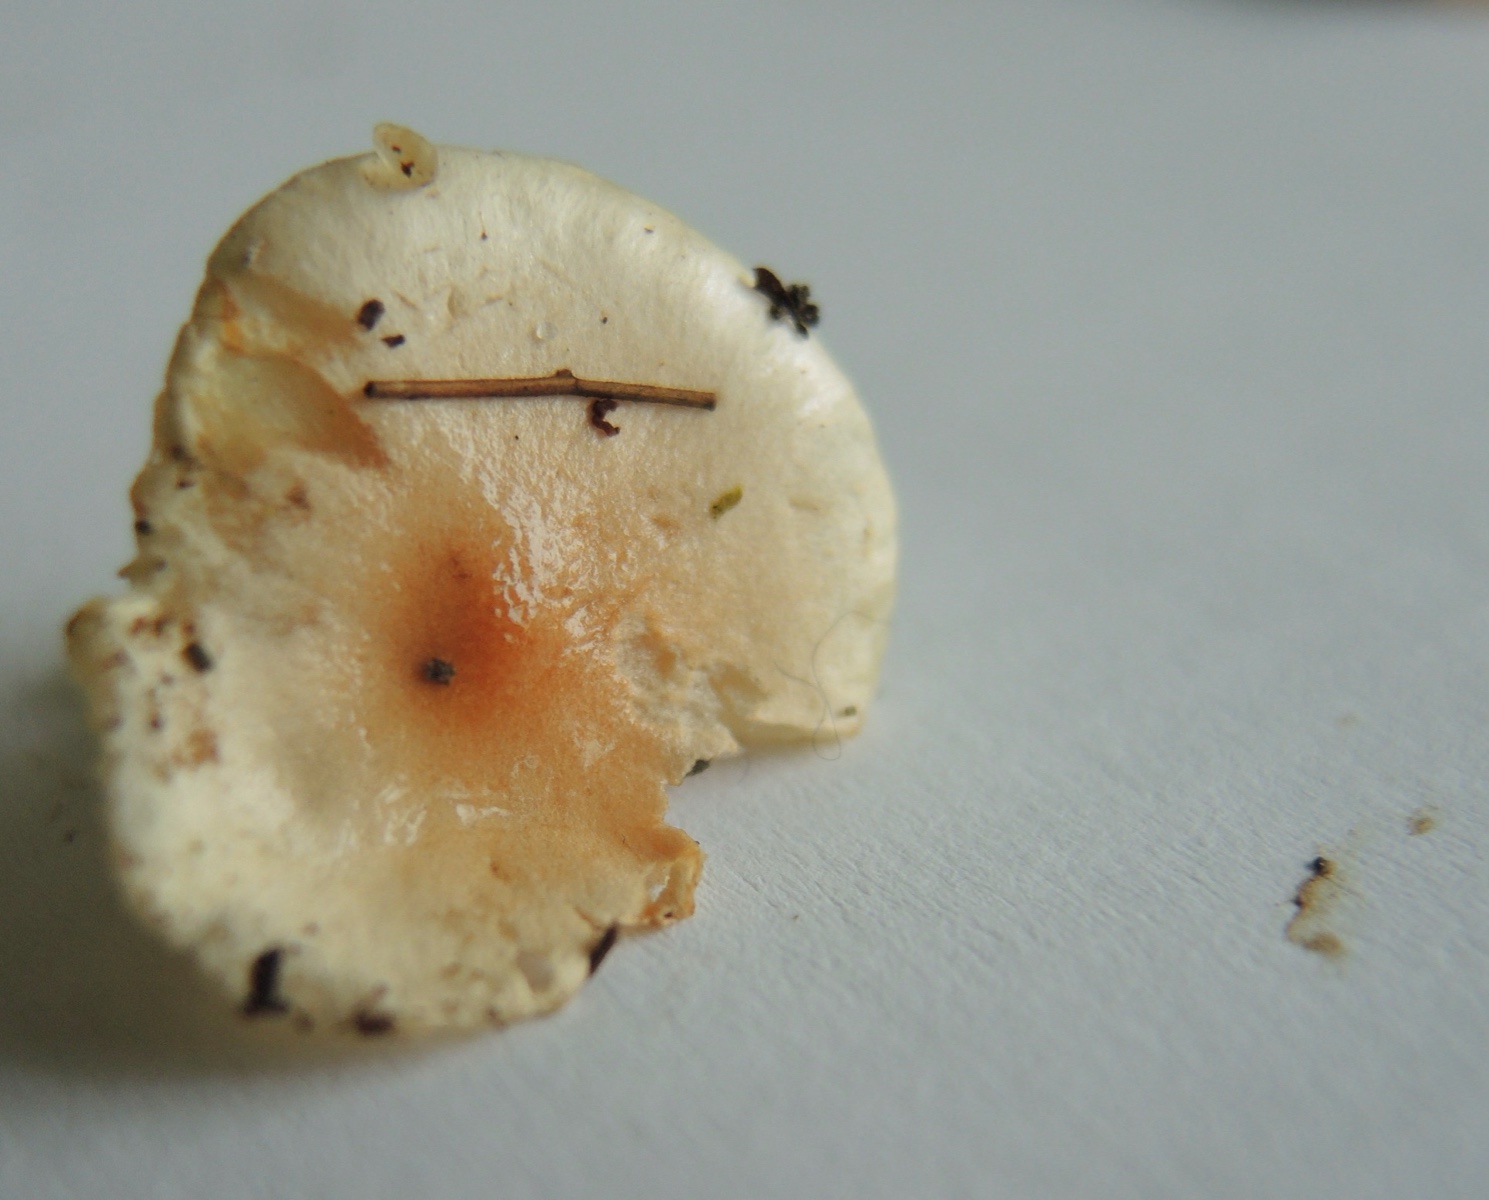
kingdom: Fungi
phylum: Basidiomycota
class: Agaricomycetes
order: Agaricales
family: Hygrophoraceae
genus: Hygrophorus
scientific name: Hygrophorus unicolor
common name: orangeøjet sneglehat
